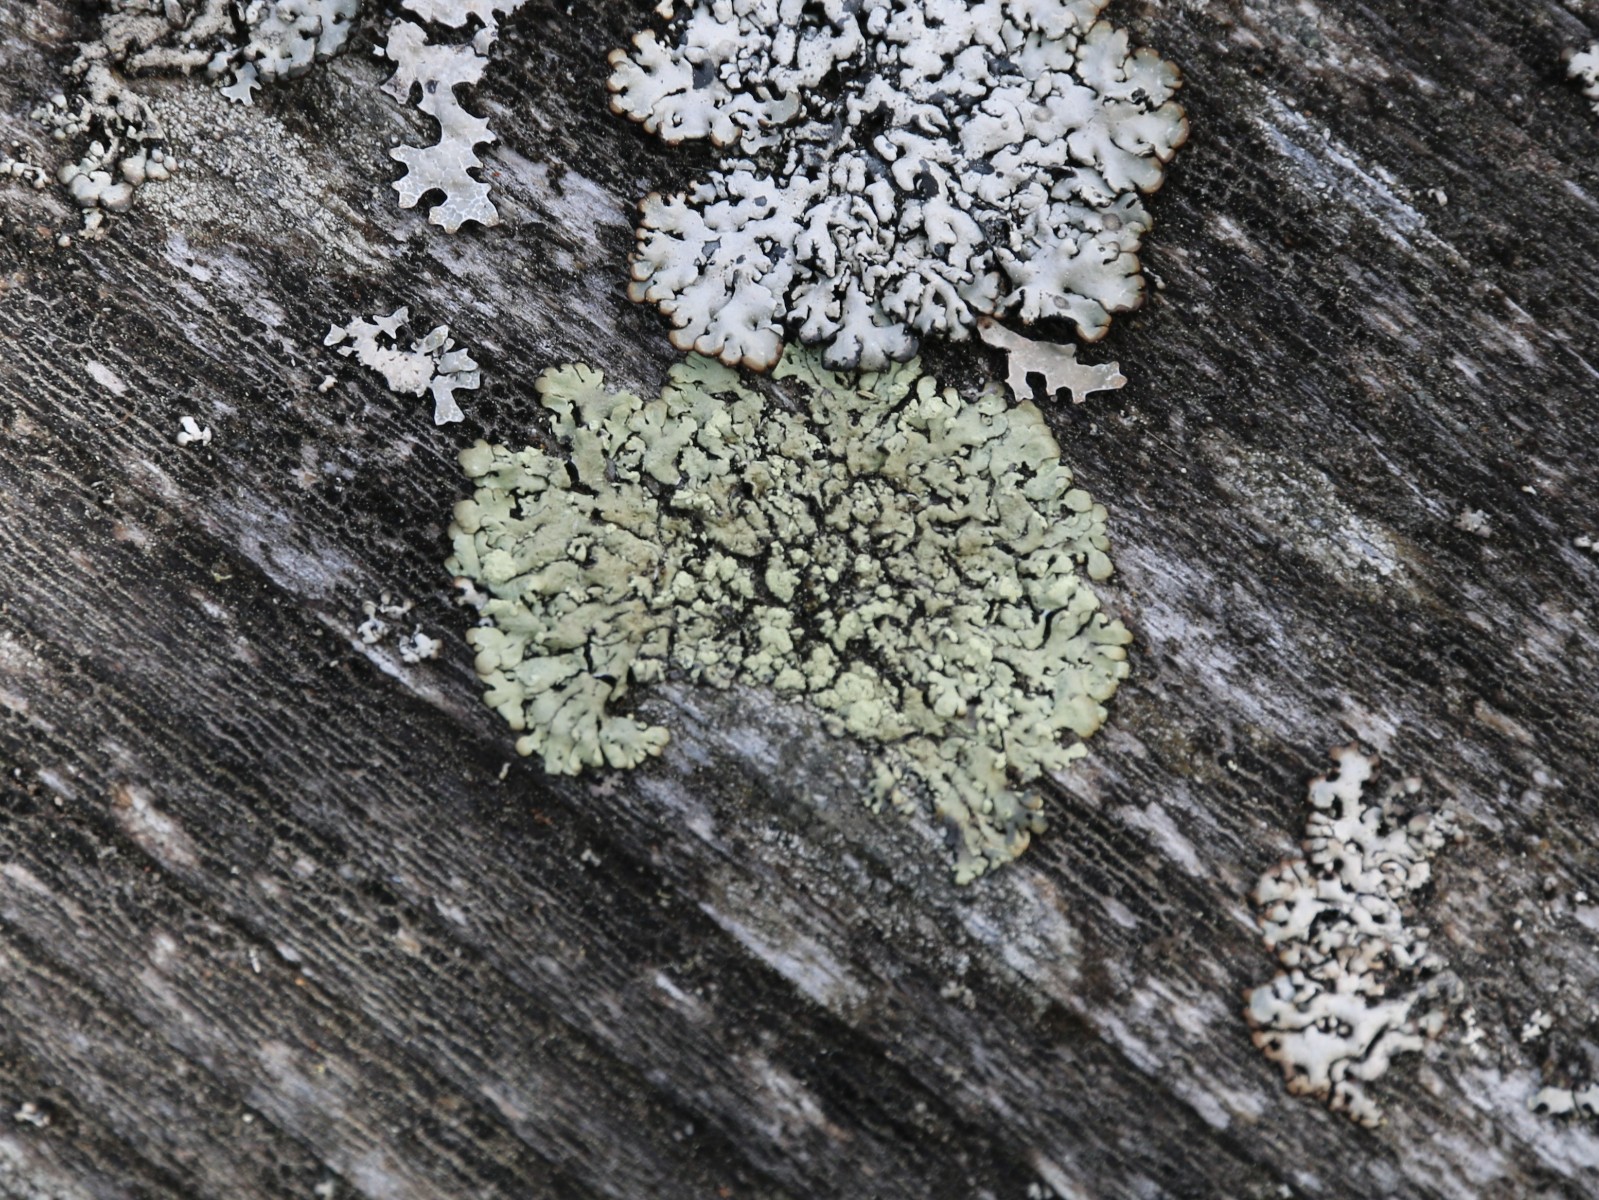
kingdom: Fungi
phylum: Ascomycota
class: Lecanoromycetes
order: Lecanorales
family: Parmeliaceae
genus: Parmeliopsis
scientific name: Parmeliopsis ambigua
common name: gul stolpelav
